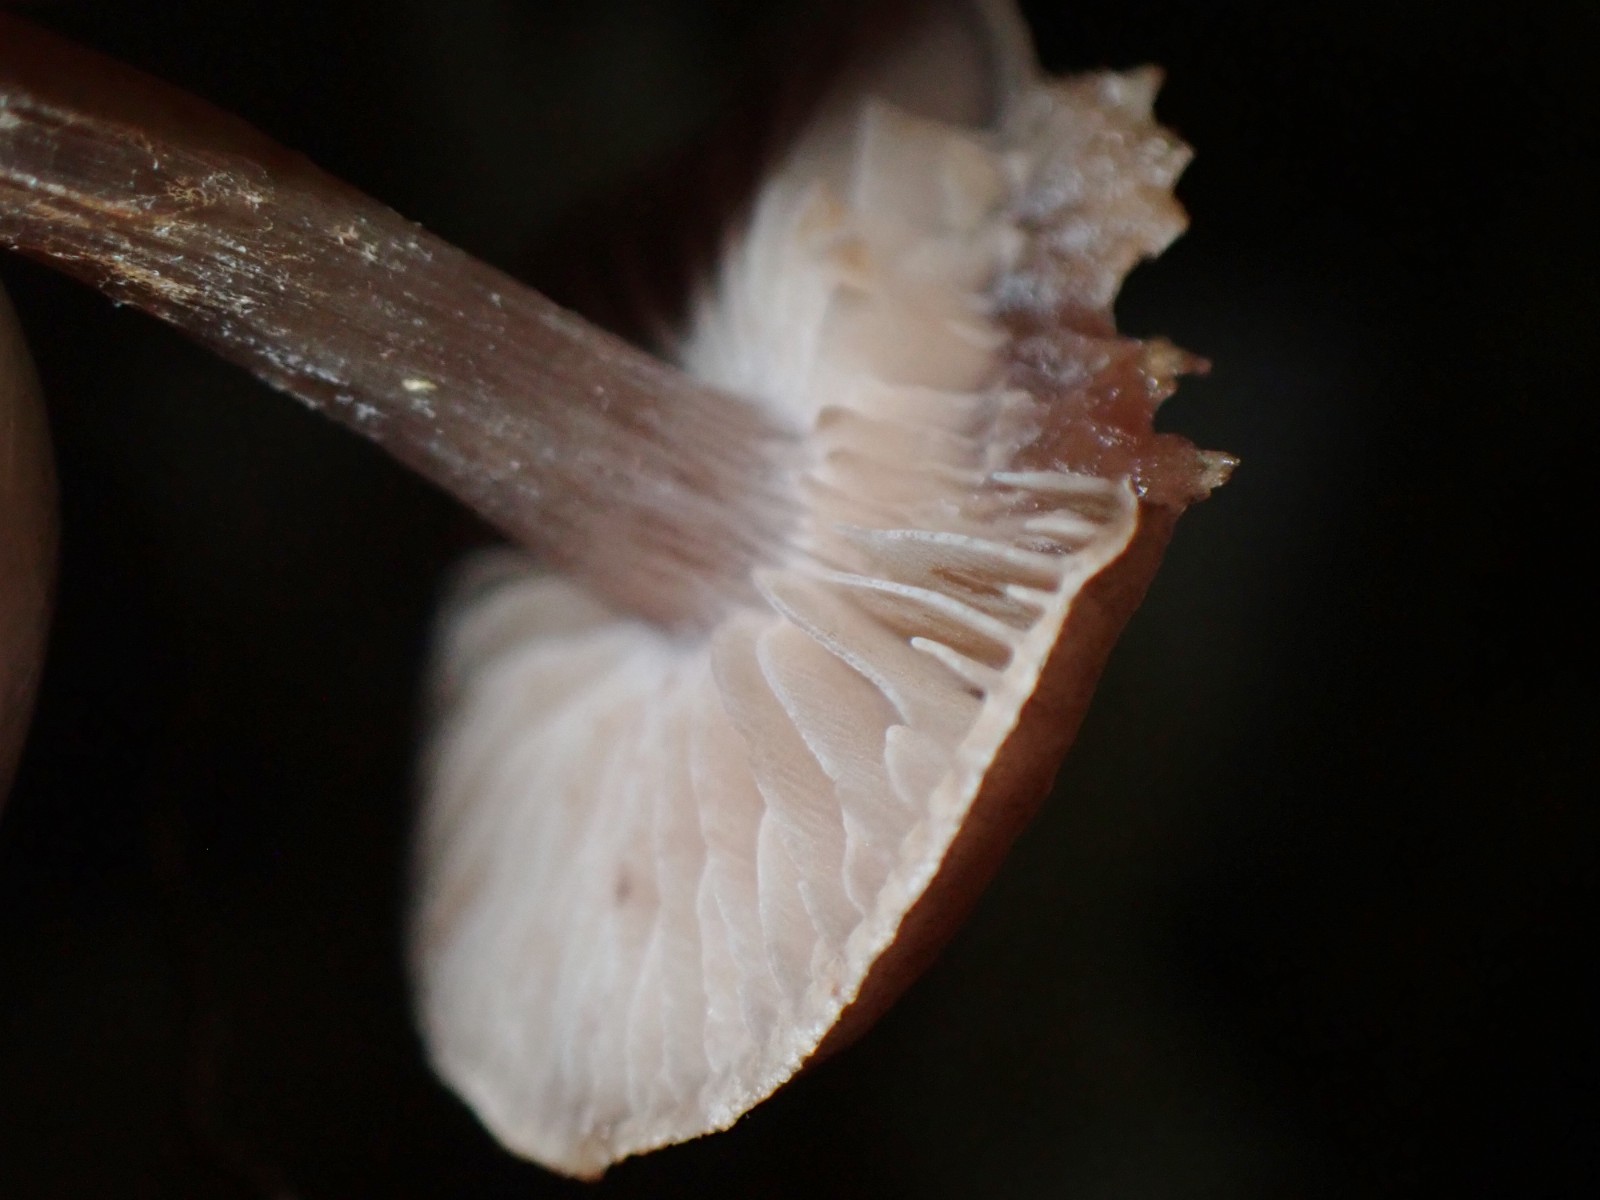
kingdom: Fungi
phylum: Basidiomycota
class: Agaricomycetes
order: Agaricales
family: Cortinariaceae
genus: Cortinarius
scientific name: Cortinarius
